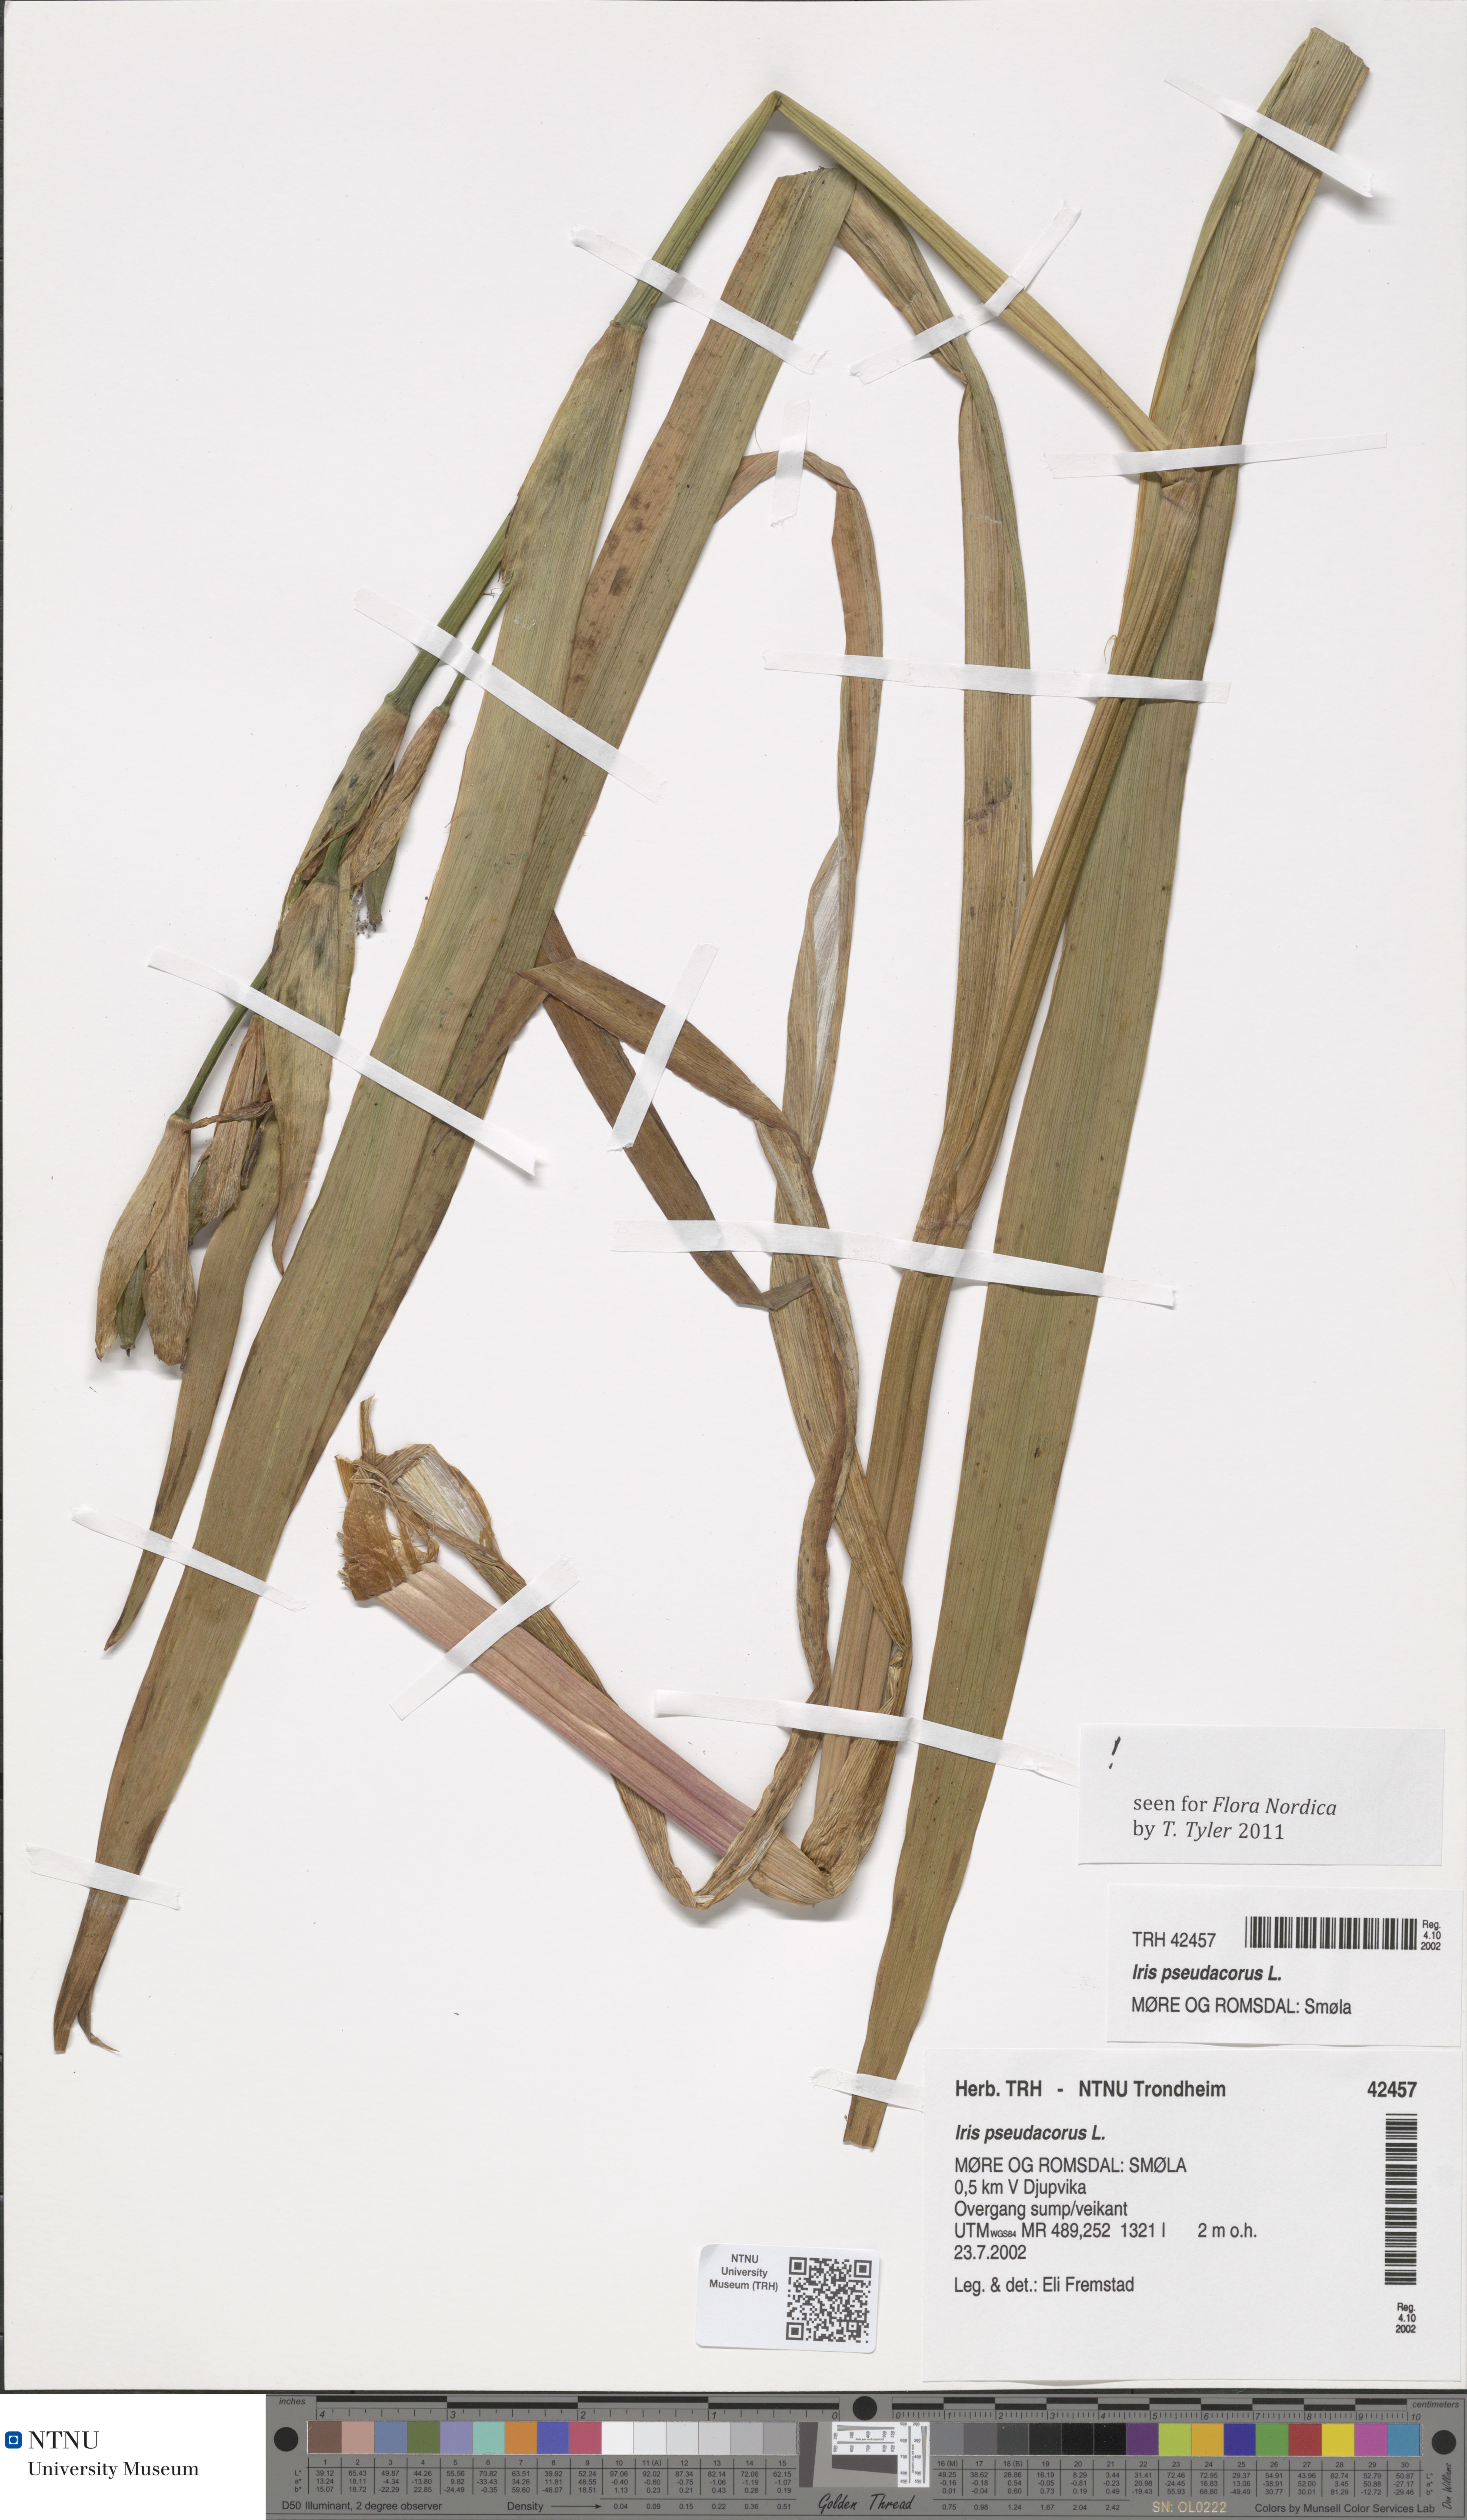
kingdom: Plantae
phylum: Tracheophyta
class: Liliopsida
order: Asparagales
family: Iridaceae
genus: Iris
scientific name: Iris pseudacorus
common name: Yellow flag
